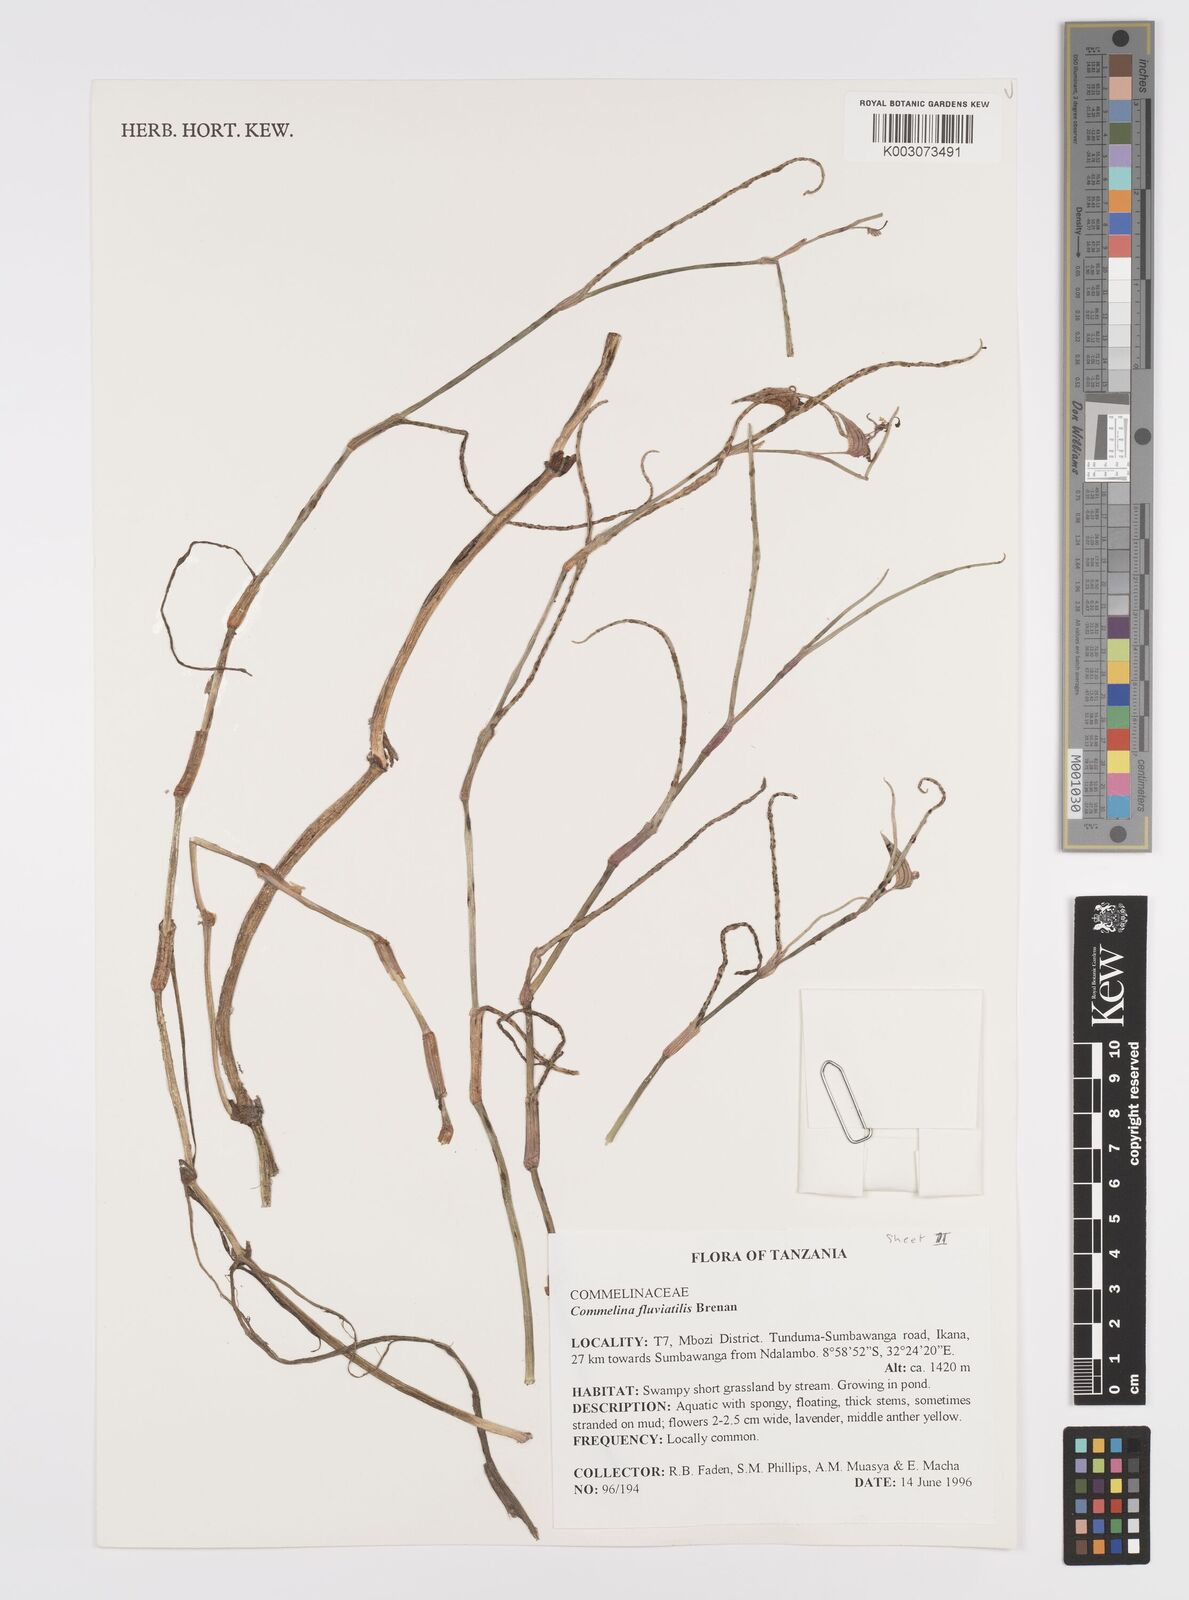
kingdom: Plantae
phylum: Tracheophyta
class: Liliopsida
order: Commelinales
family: Commelinaceae
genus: Commelina
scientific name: Commelina fluviatilis
